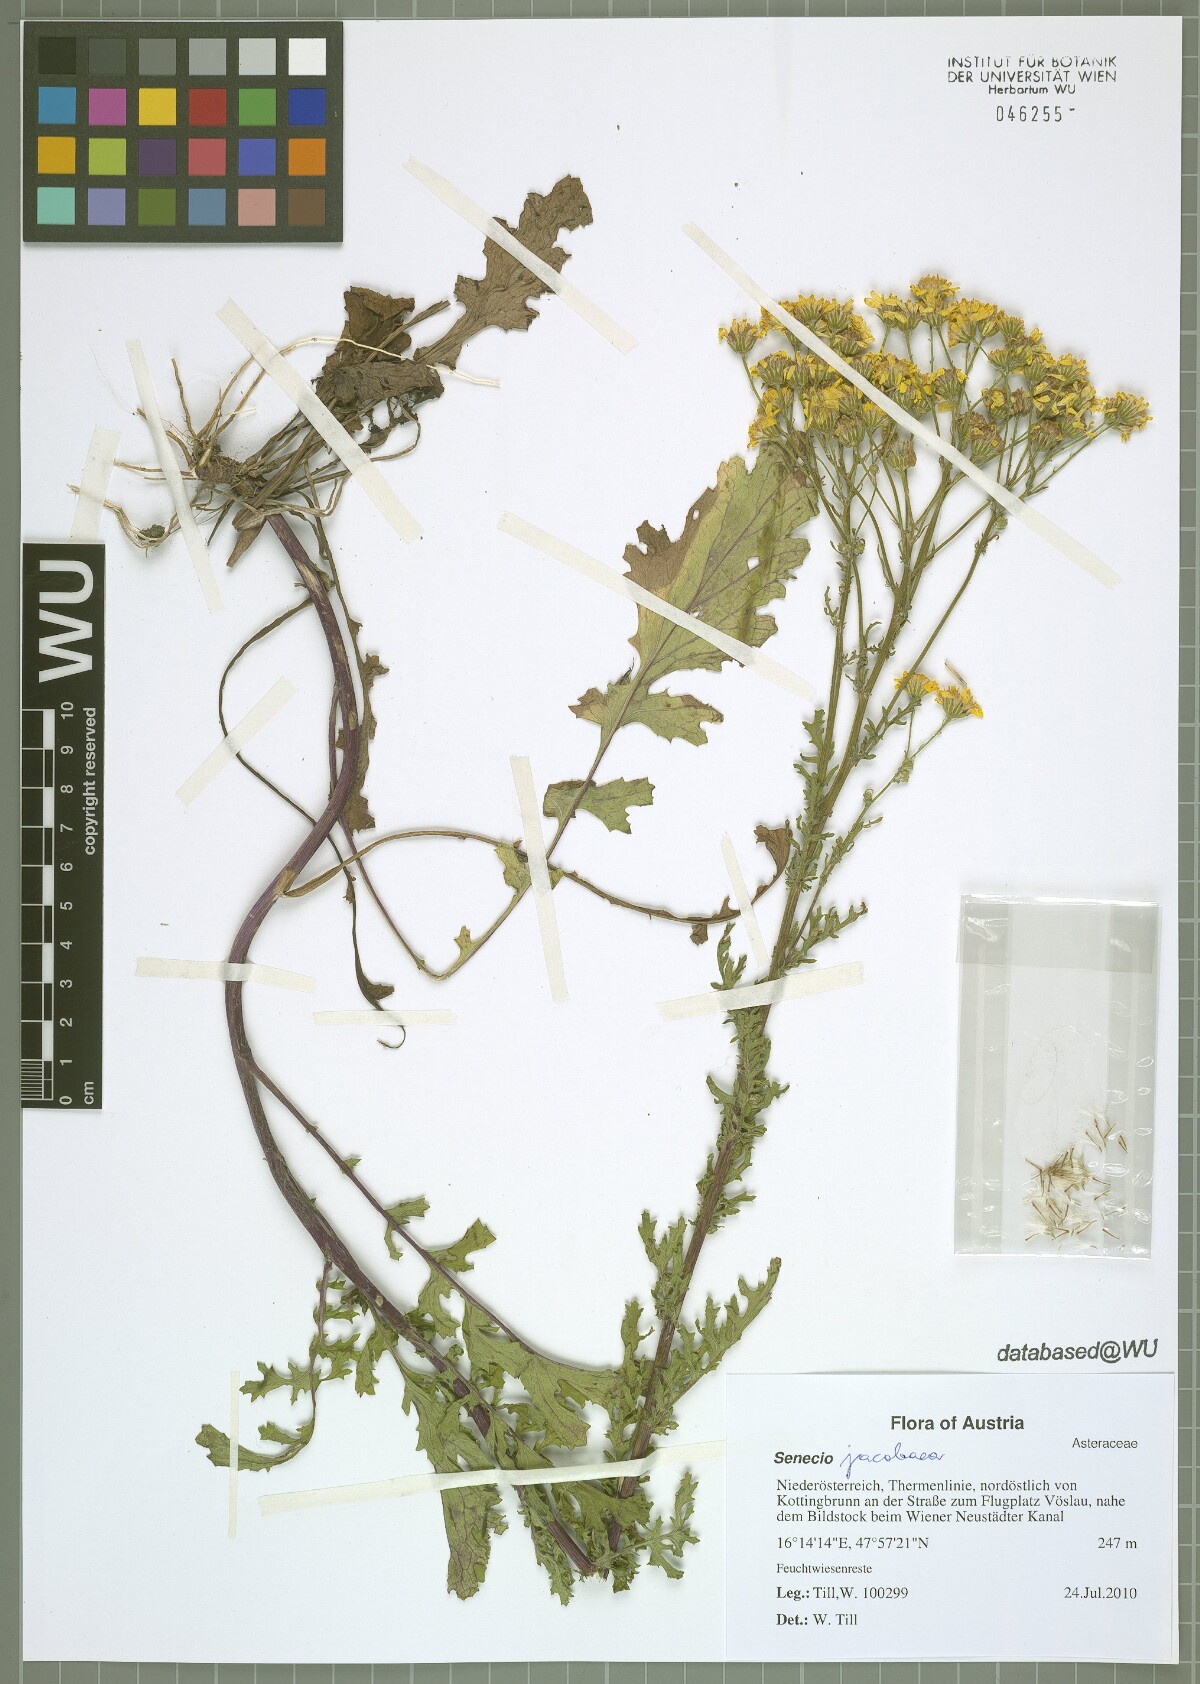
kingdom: Plantae
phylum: Tracheophyta
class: Magnoliopsida
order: Asterales
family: Asteraceae
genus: Jacobaea
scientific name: Jacobaea vulgaris
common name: Stinking willie
